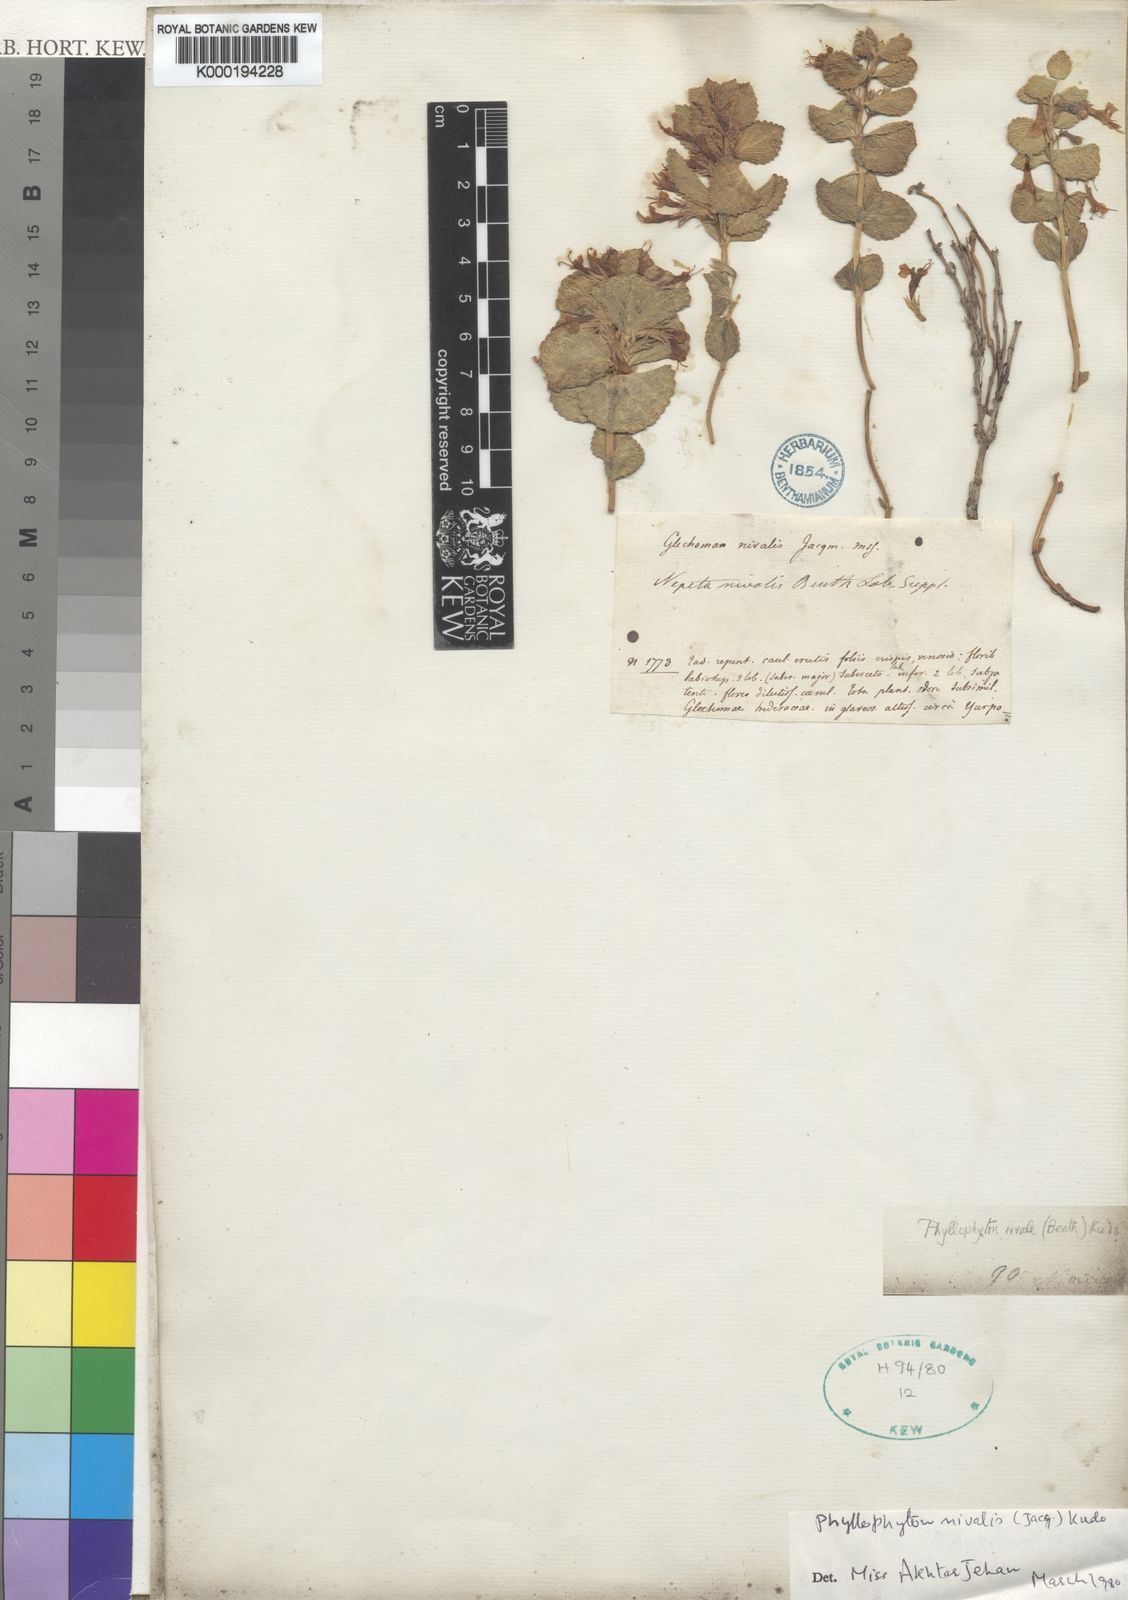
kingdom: Plantae
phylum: Tracheophyta
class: Magnoliopsida
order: Lamiales
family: Lamiaceae
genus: Nepeta
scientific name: Nepeta nivalis
